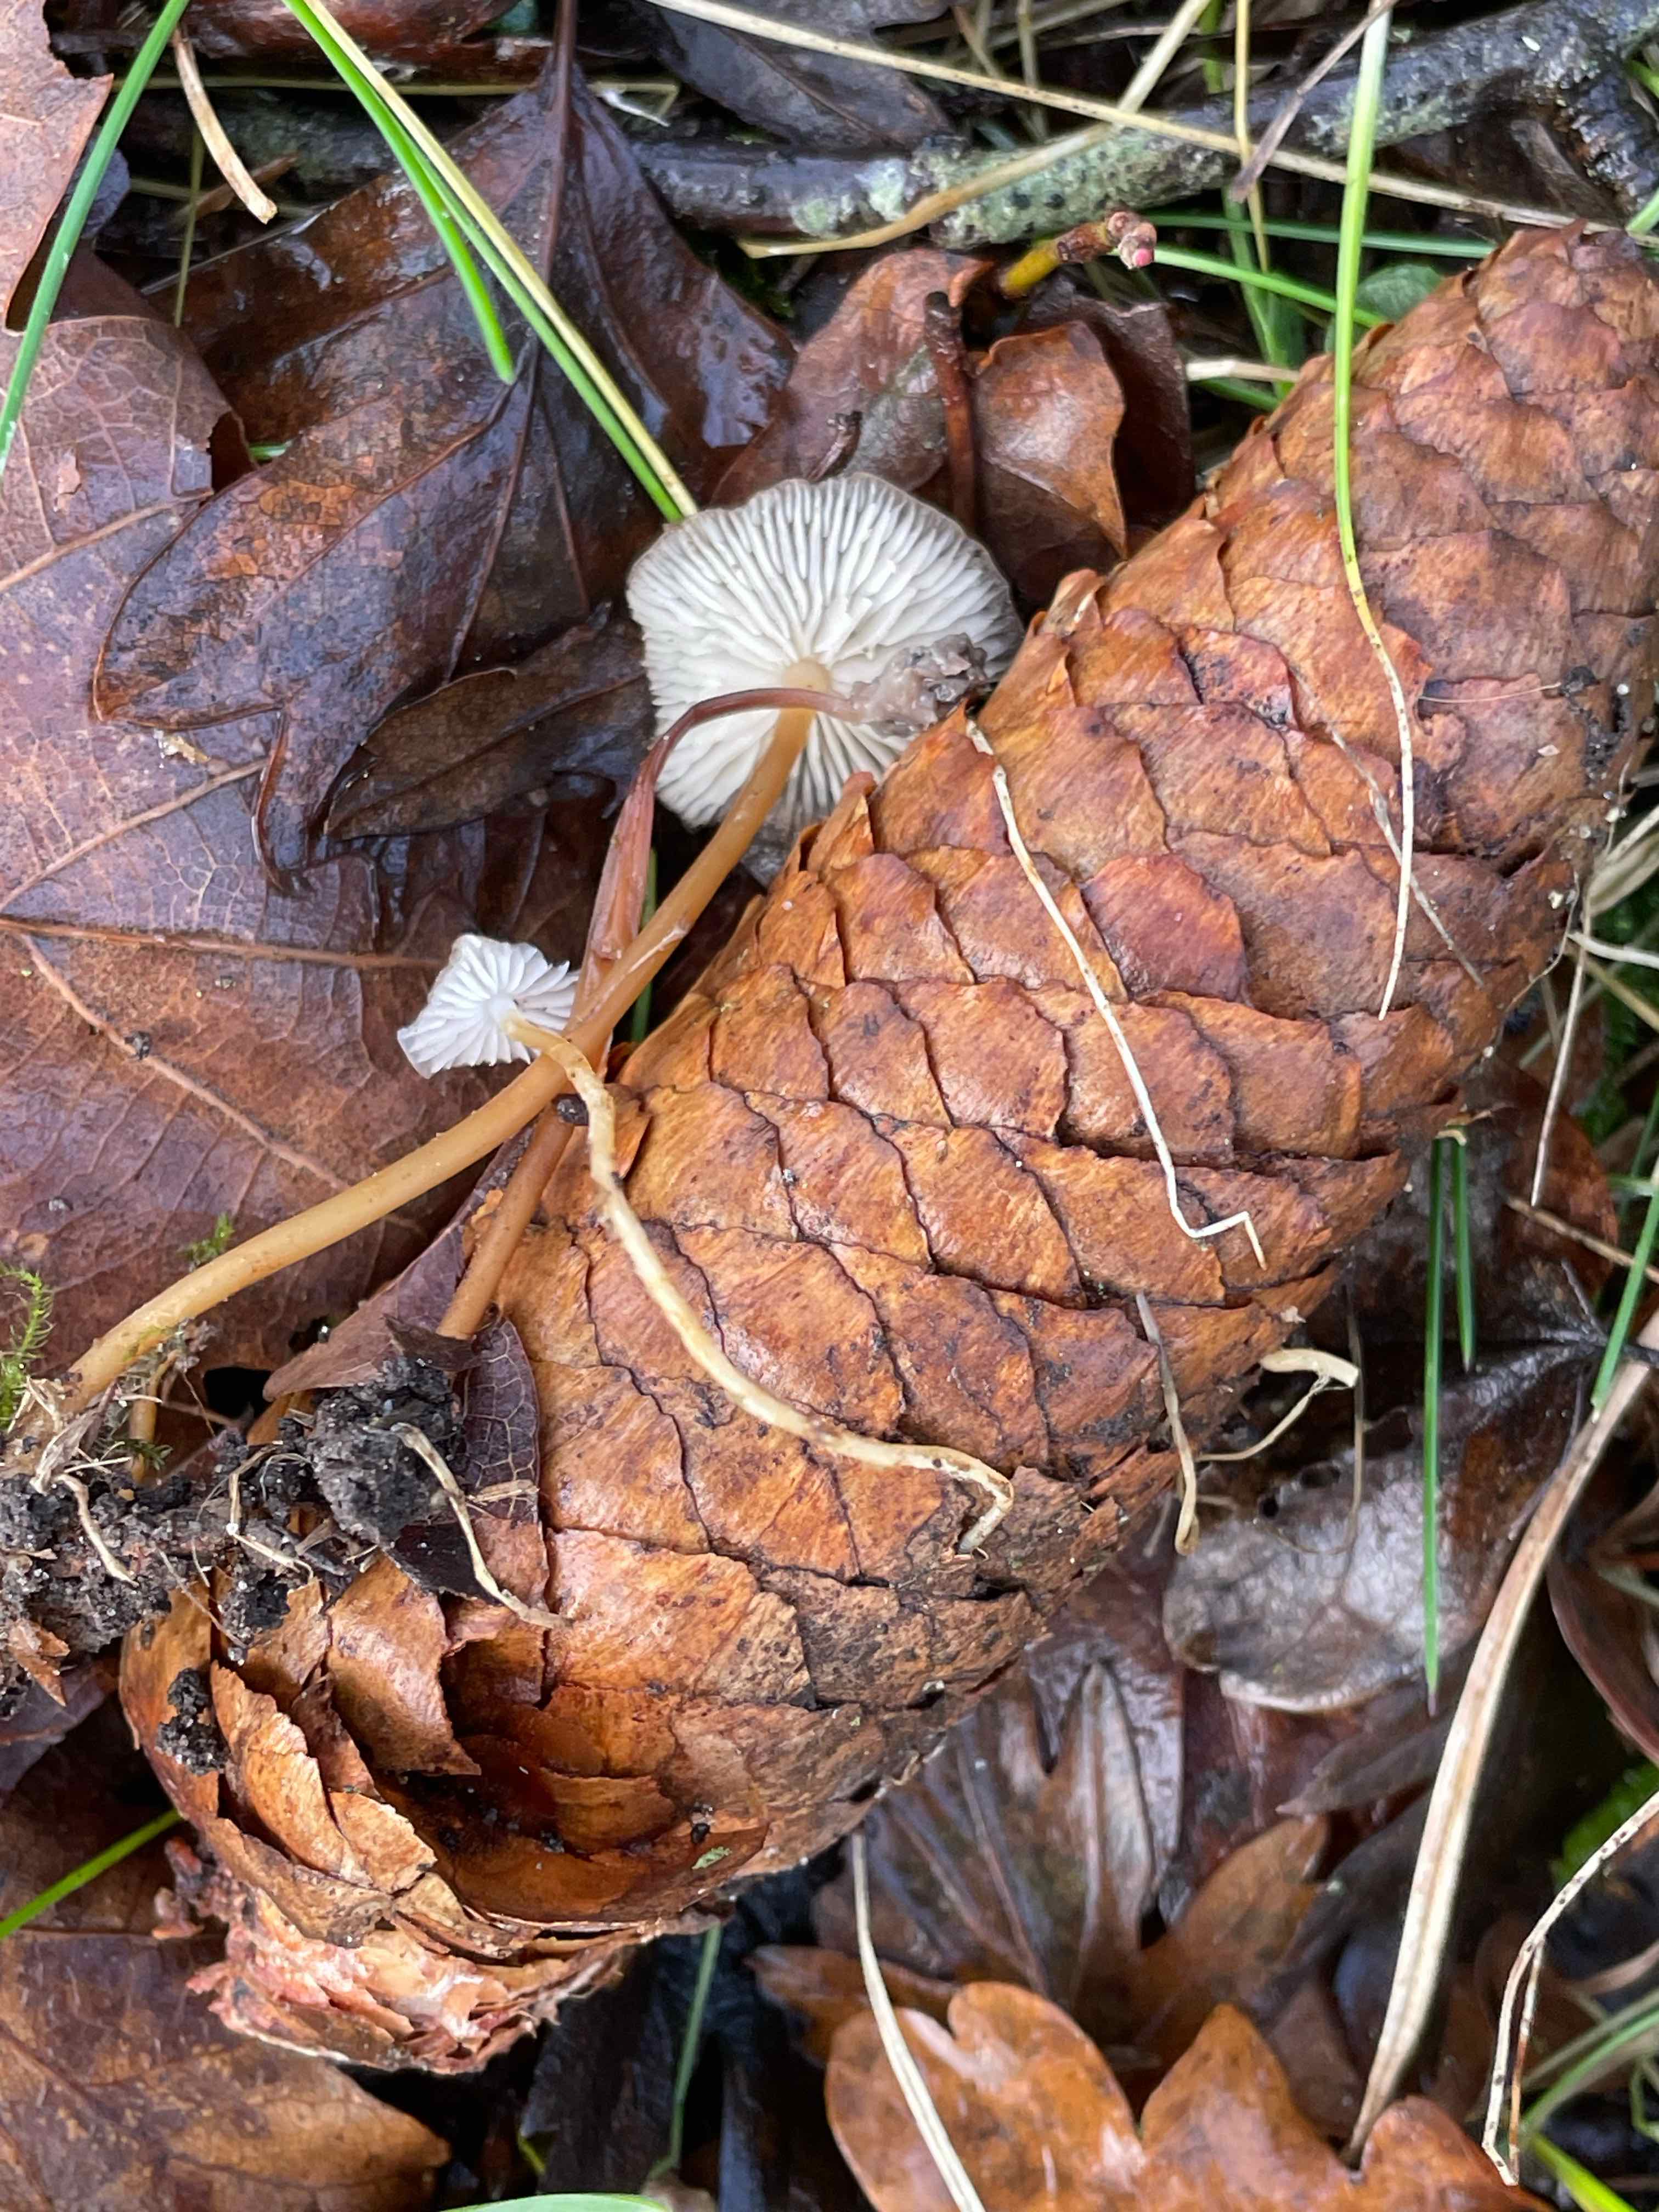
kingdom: Fungi
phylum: Basidiomycota
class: Agaricomycetes
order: Agaricales
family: Physalacriaceae
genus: Strobilurus
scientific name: Strobilurus esculentus
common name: gran-koglehat
